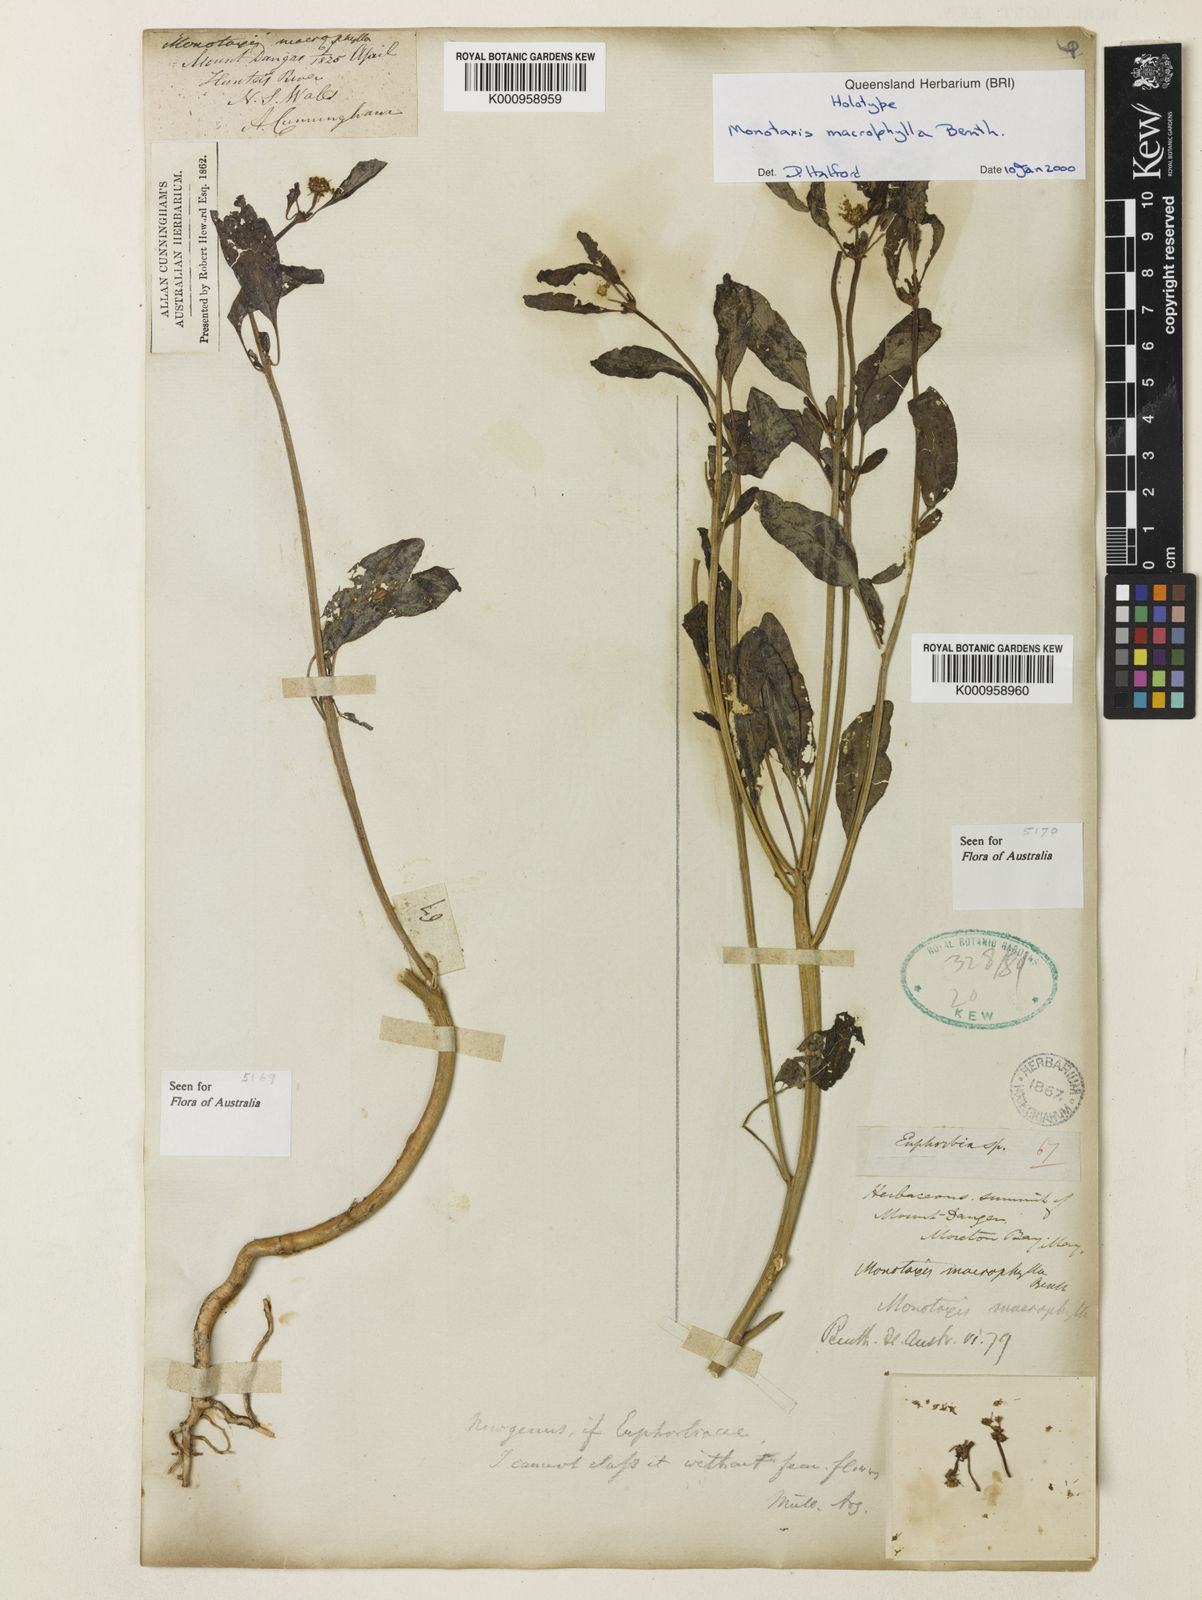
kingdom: Plantae
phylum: Tracheophyta
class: Magnoliopsida
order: Malpighiales
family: Euphorbiaceae
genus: Monotaxis
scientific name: Monotaxis macrophylla
